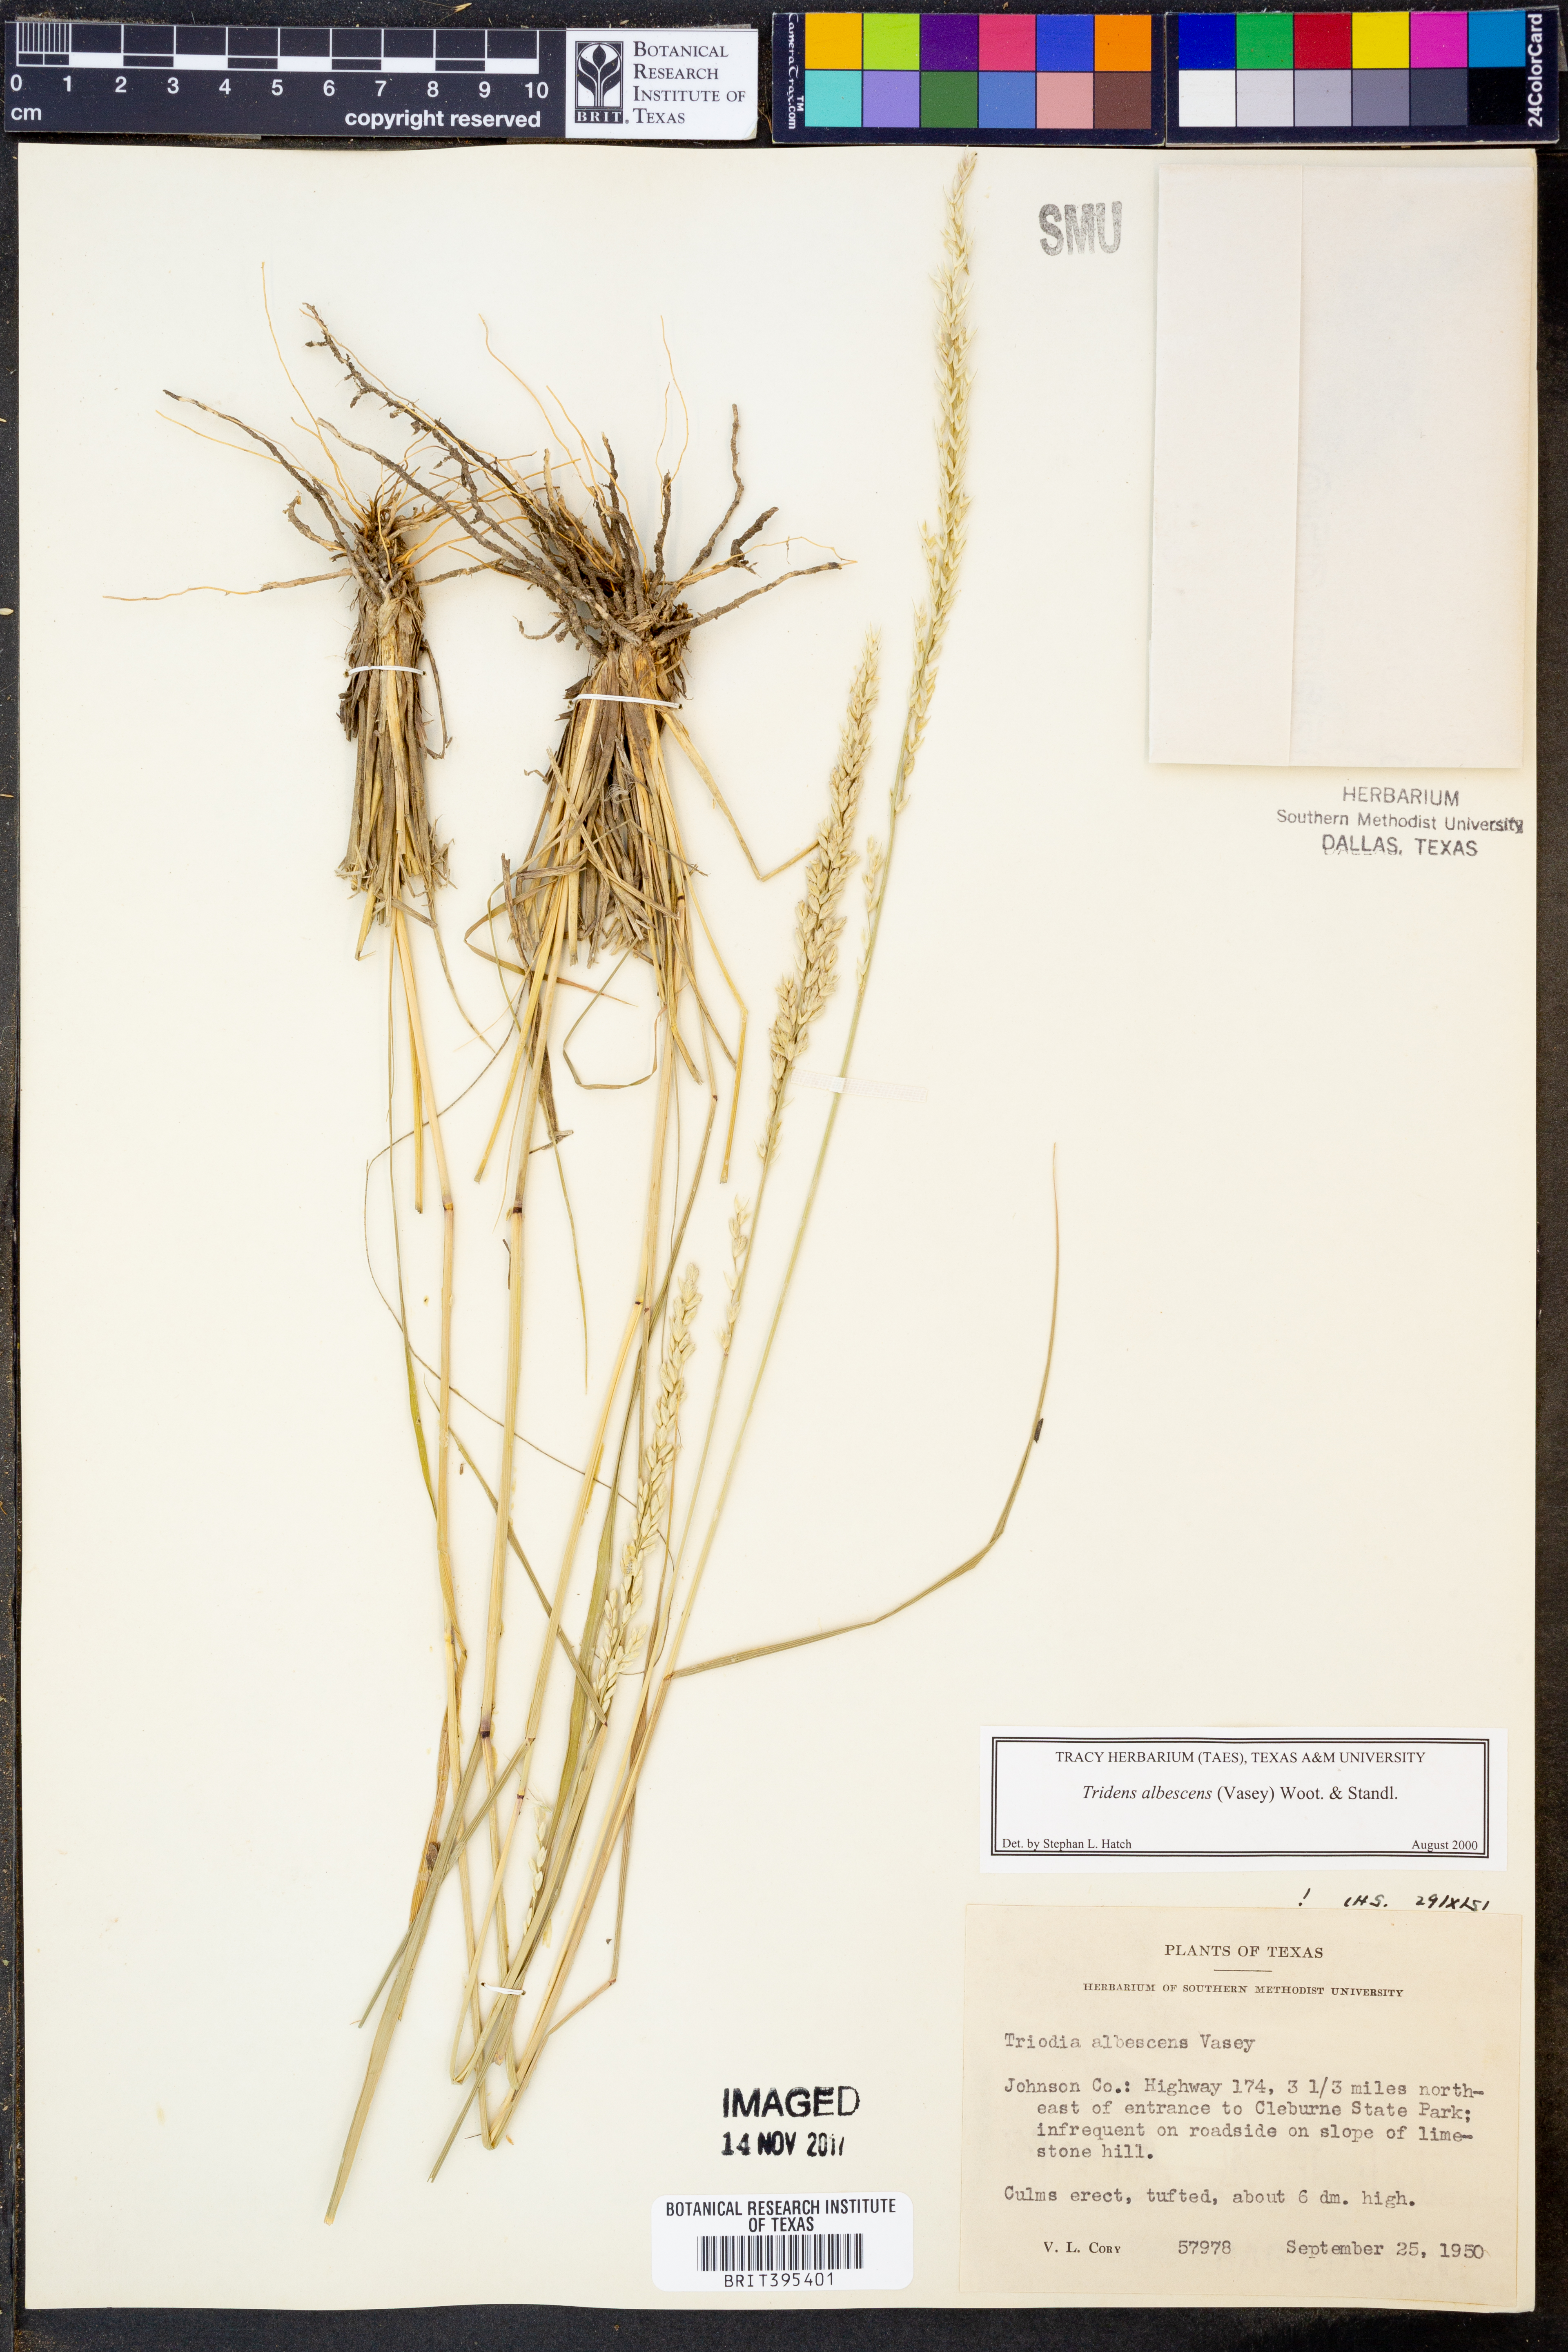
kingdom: Plantae
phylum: Tracheophyta
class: Liliopsida
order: Poales
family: Poaceae
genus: Tridens
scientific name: Tridens albescens
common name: White tridens
